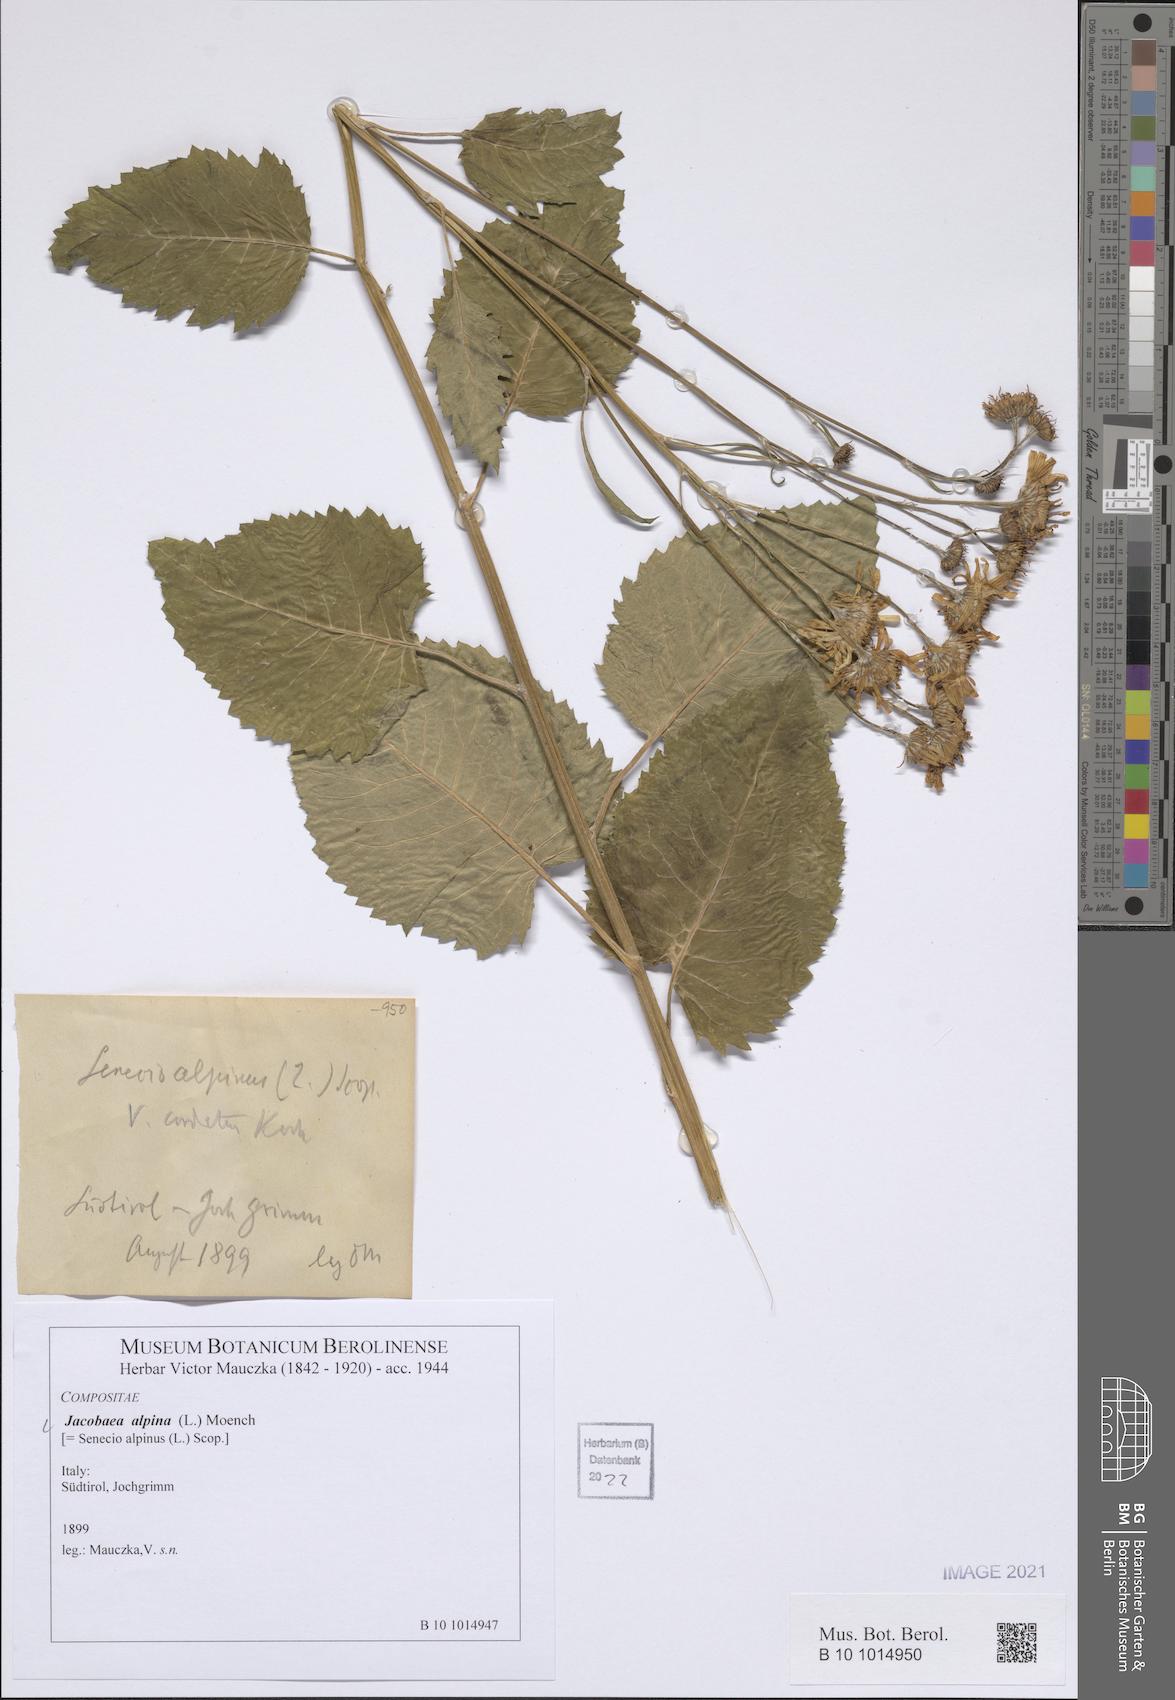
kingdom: Plantae
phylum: Tracheophyta
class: Magnoliopsida
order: Asterales
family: Asteraceae
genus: Jacobaea
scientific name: Jacobaea alpina
